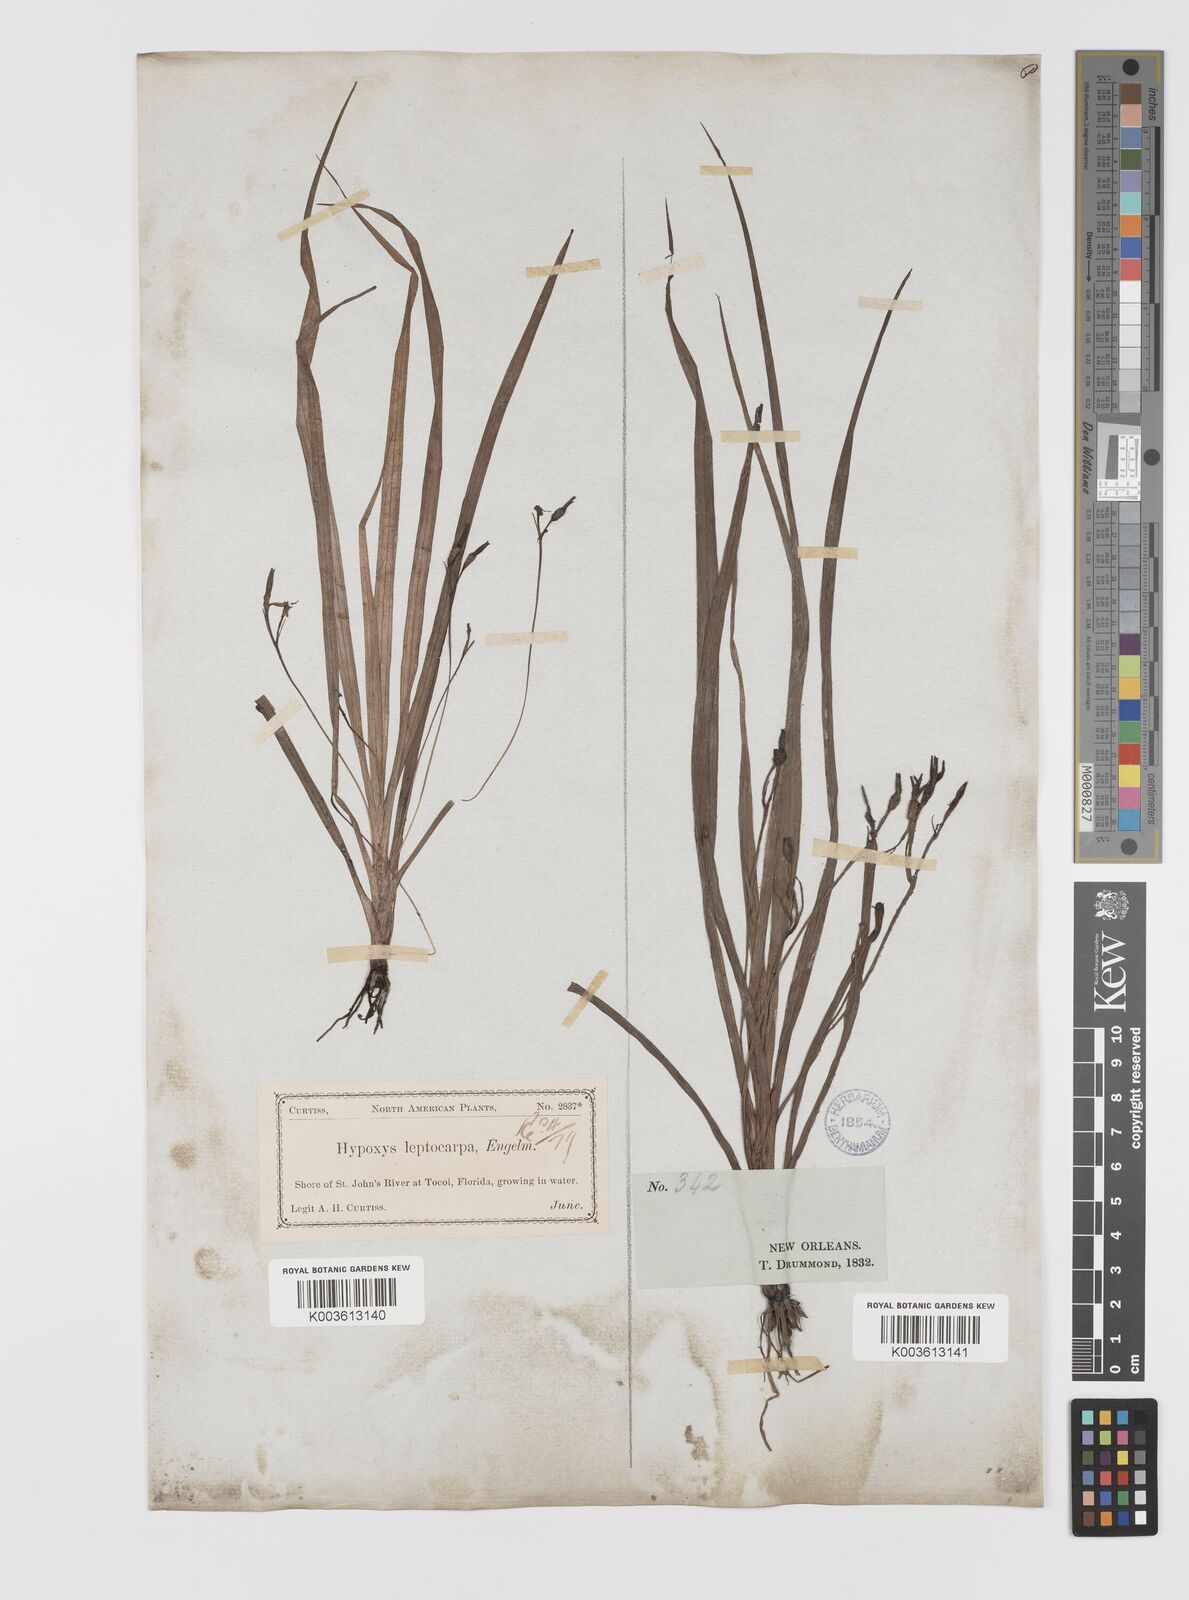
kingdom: Plantae
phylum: Tracheophyta
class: Liliopsida
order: Asparagales
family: Hypoxidaceae
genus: Hypoxis
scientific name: Hypoxis curtissii
